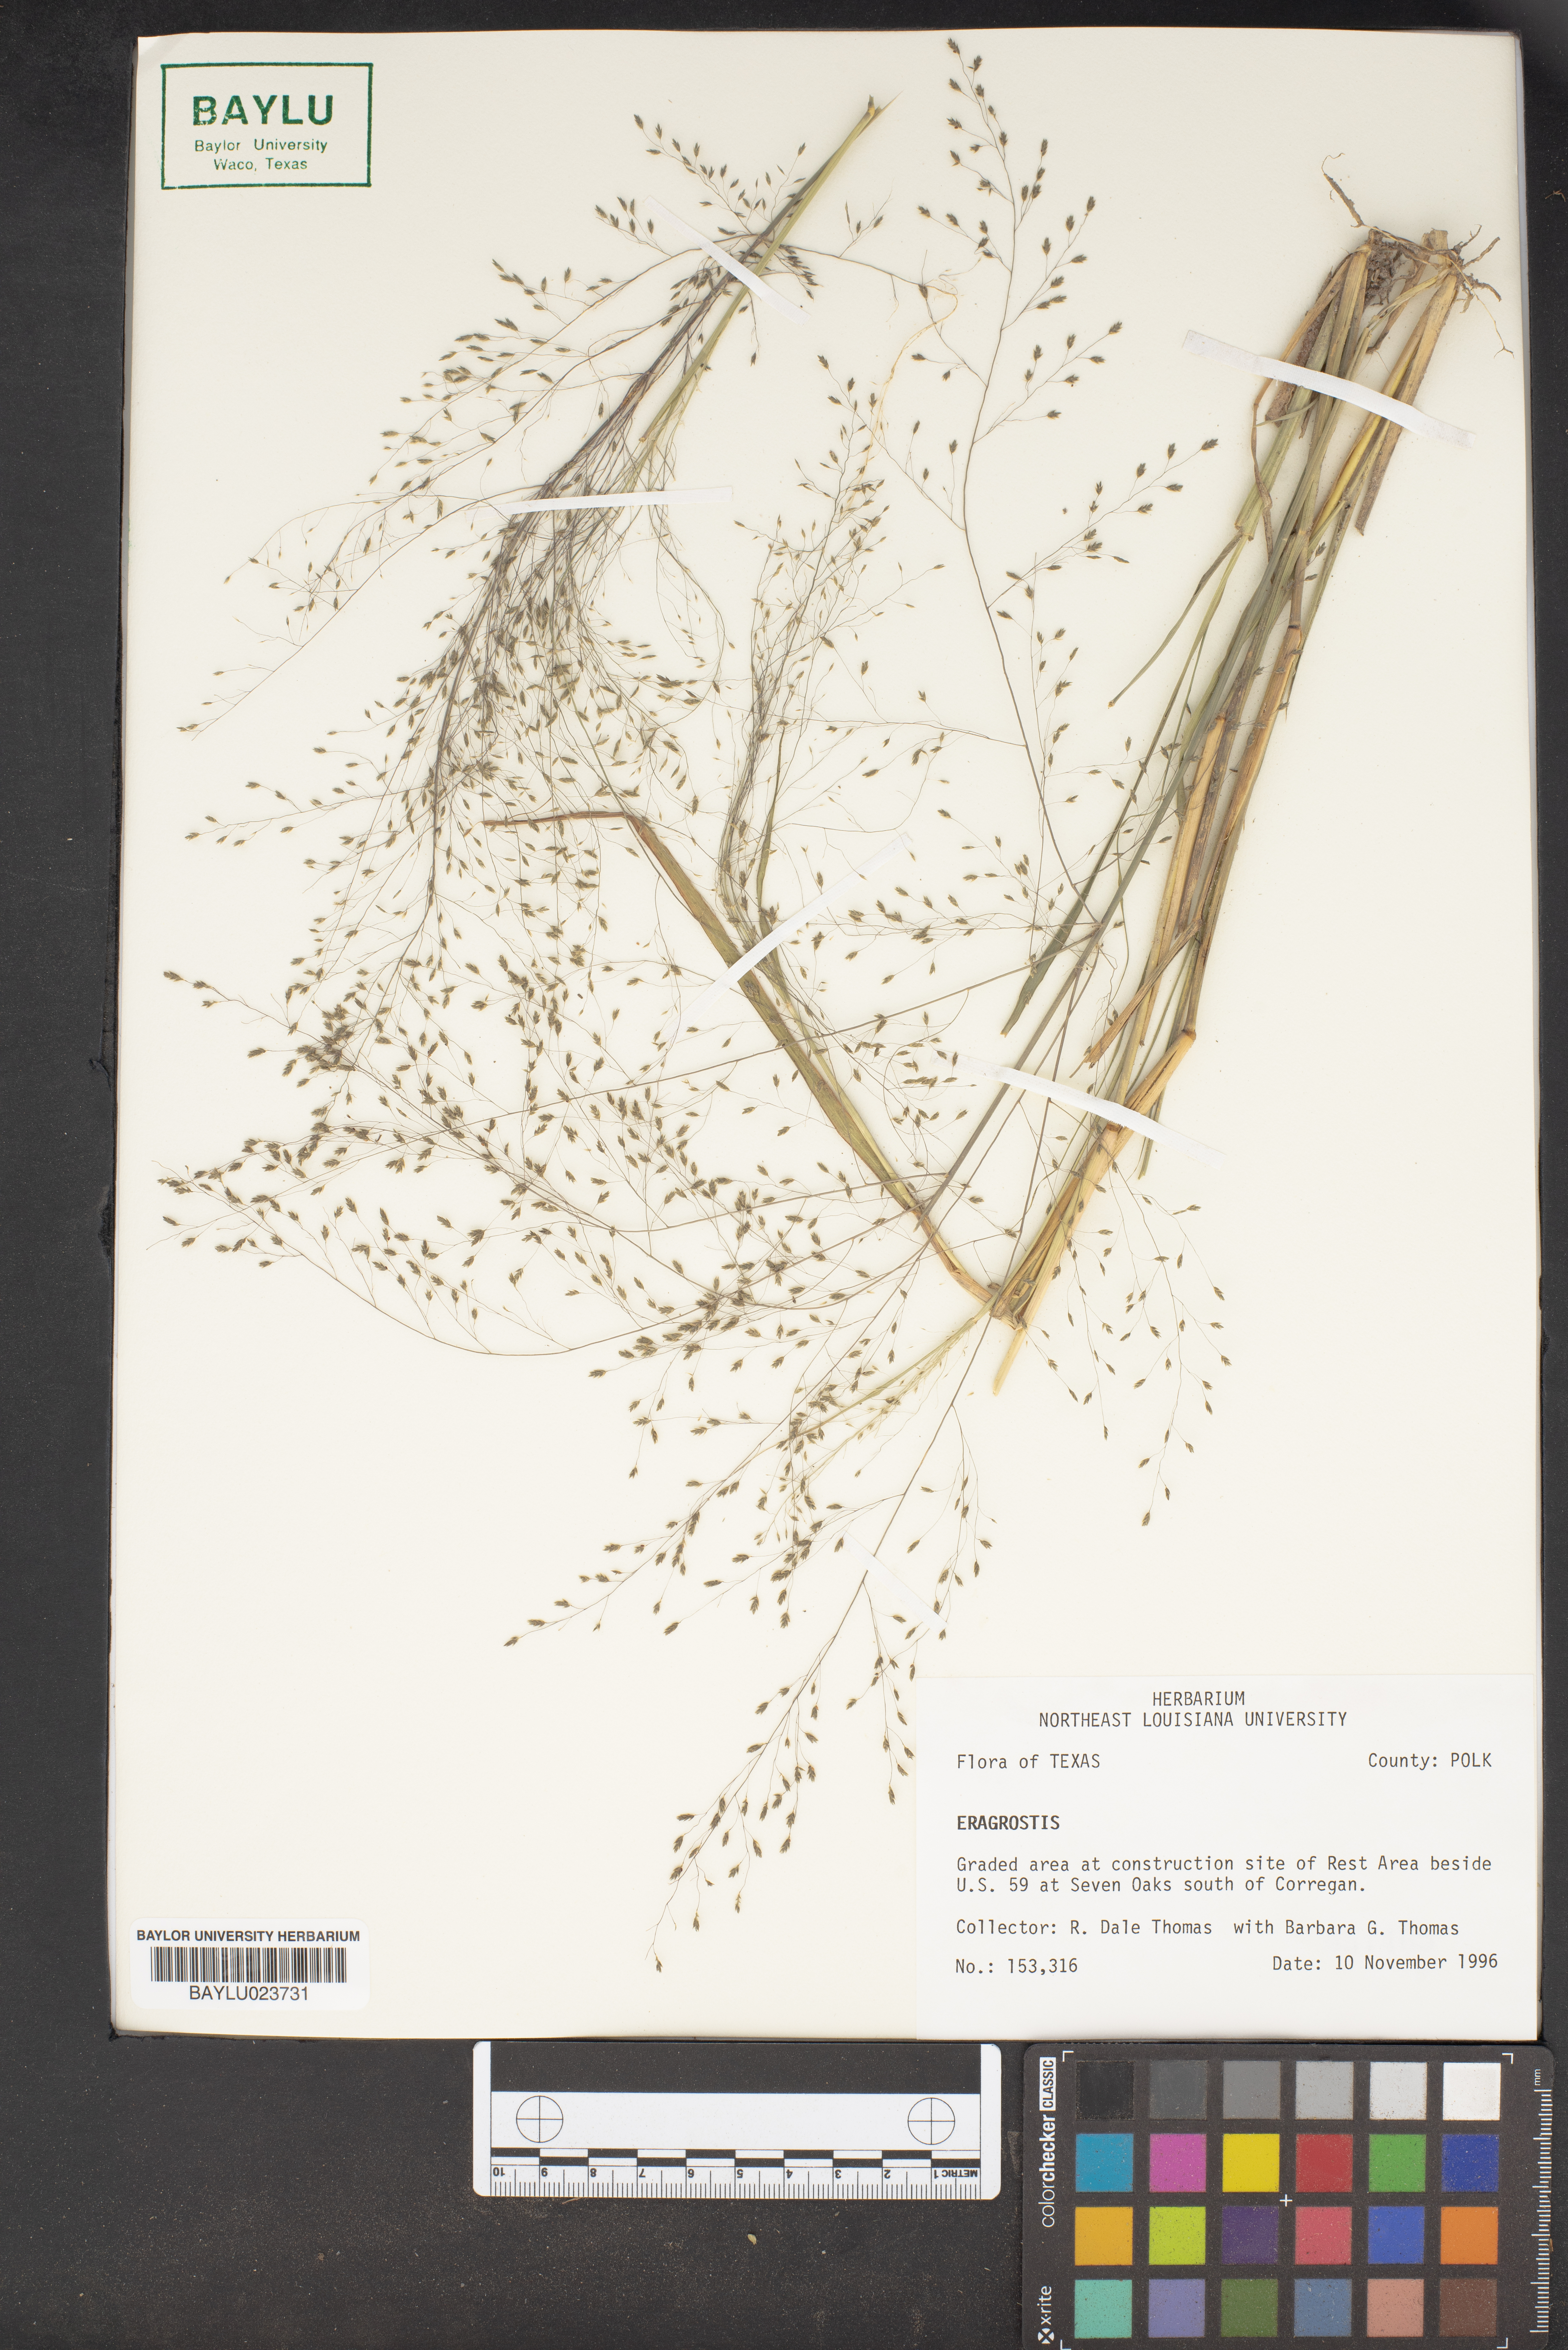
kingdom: Plantae
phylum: Tracheophyta
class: Liliopsida
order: Poales
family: Poaceae
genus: Eragrostis
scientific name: Eragrostis
